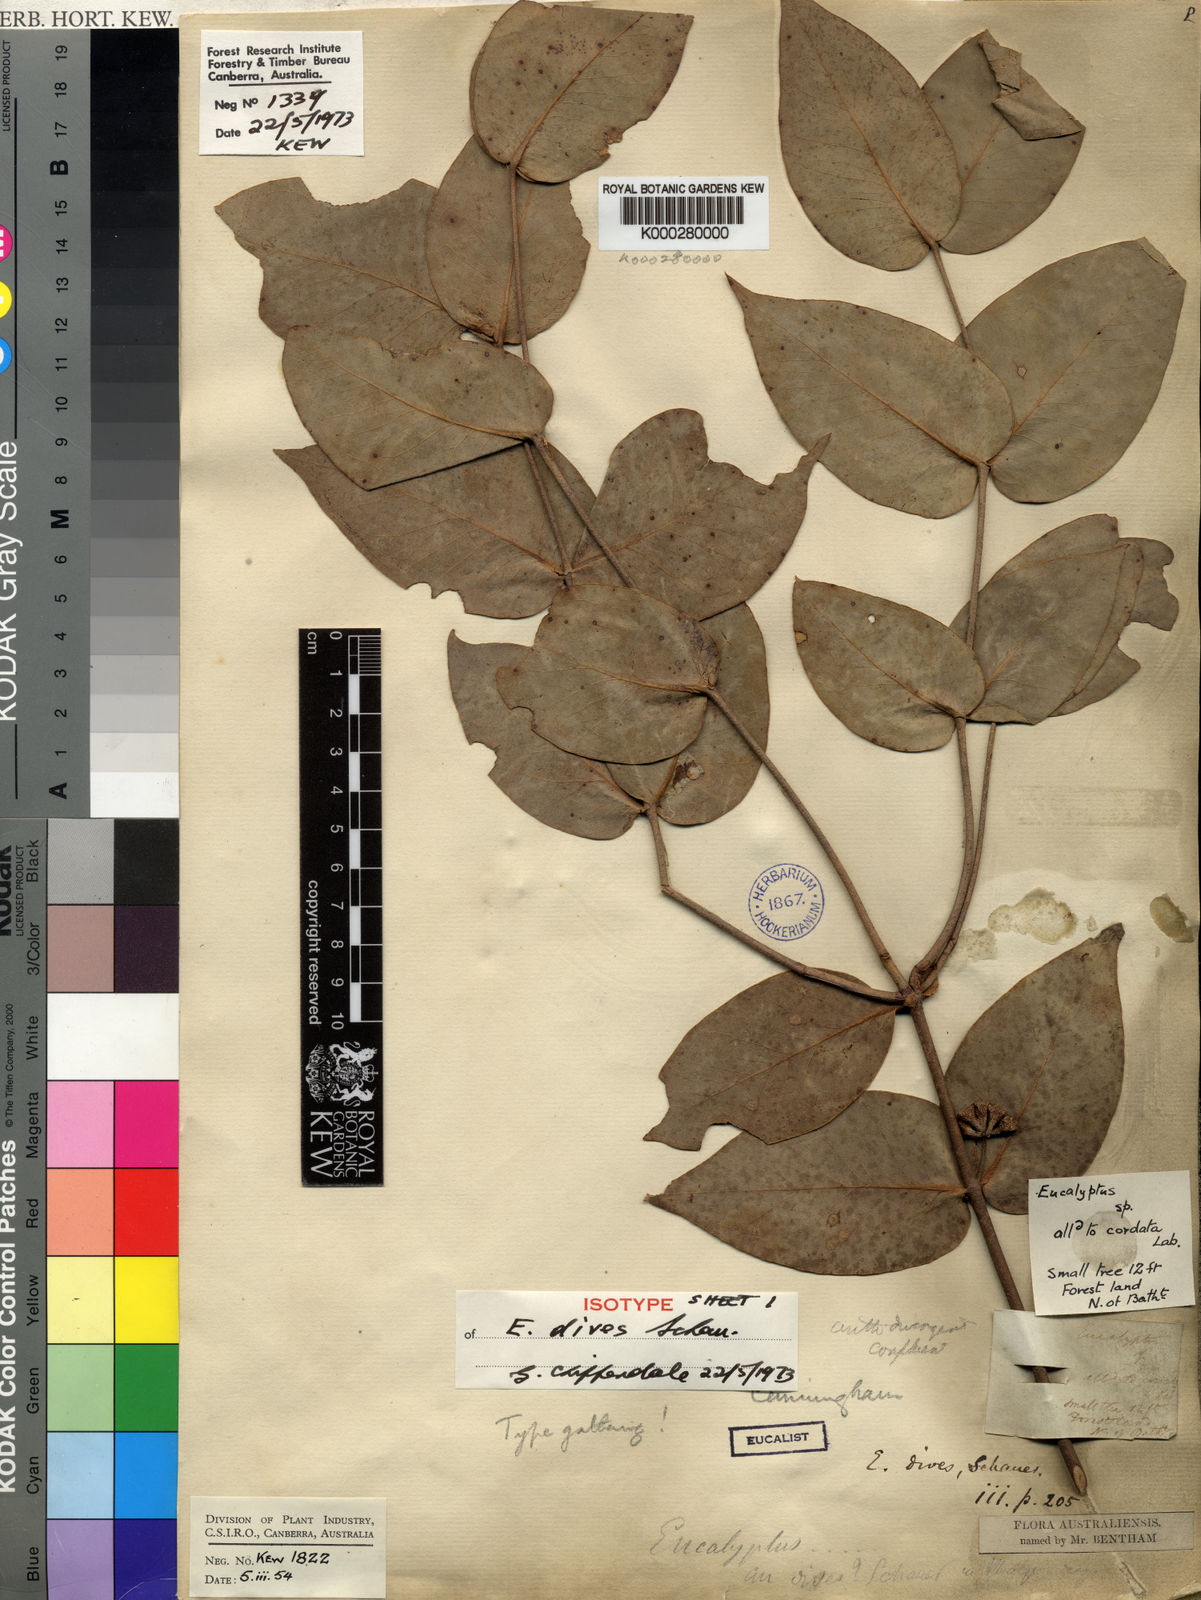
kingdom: Plantae
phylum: Tracheophyta
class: Magnoliopsida
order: Myrtales
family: Myrtaceae
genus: Eucalyptus
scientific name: Eucalyptus dives
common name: Blue peppermint
